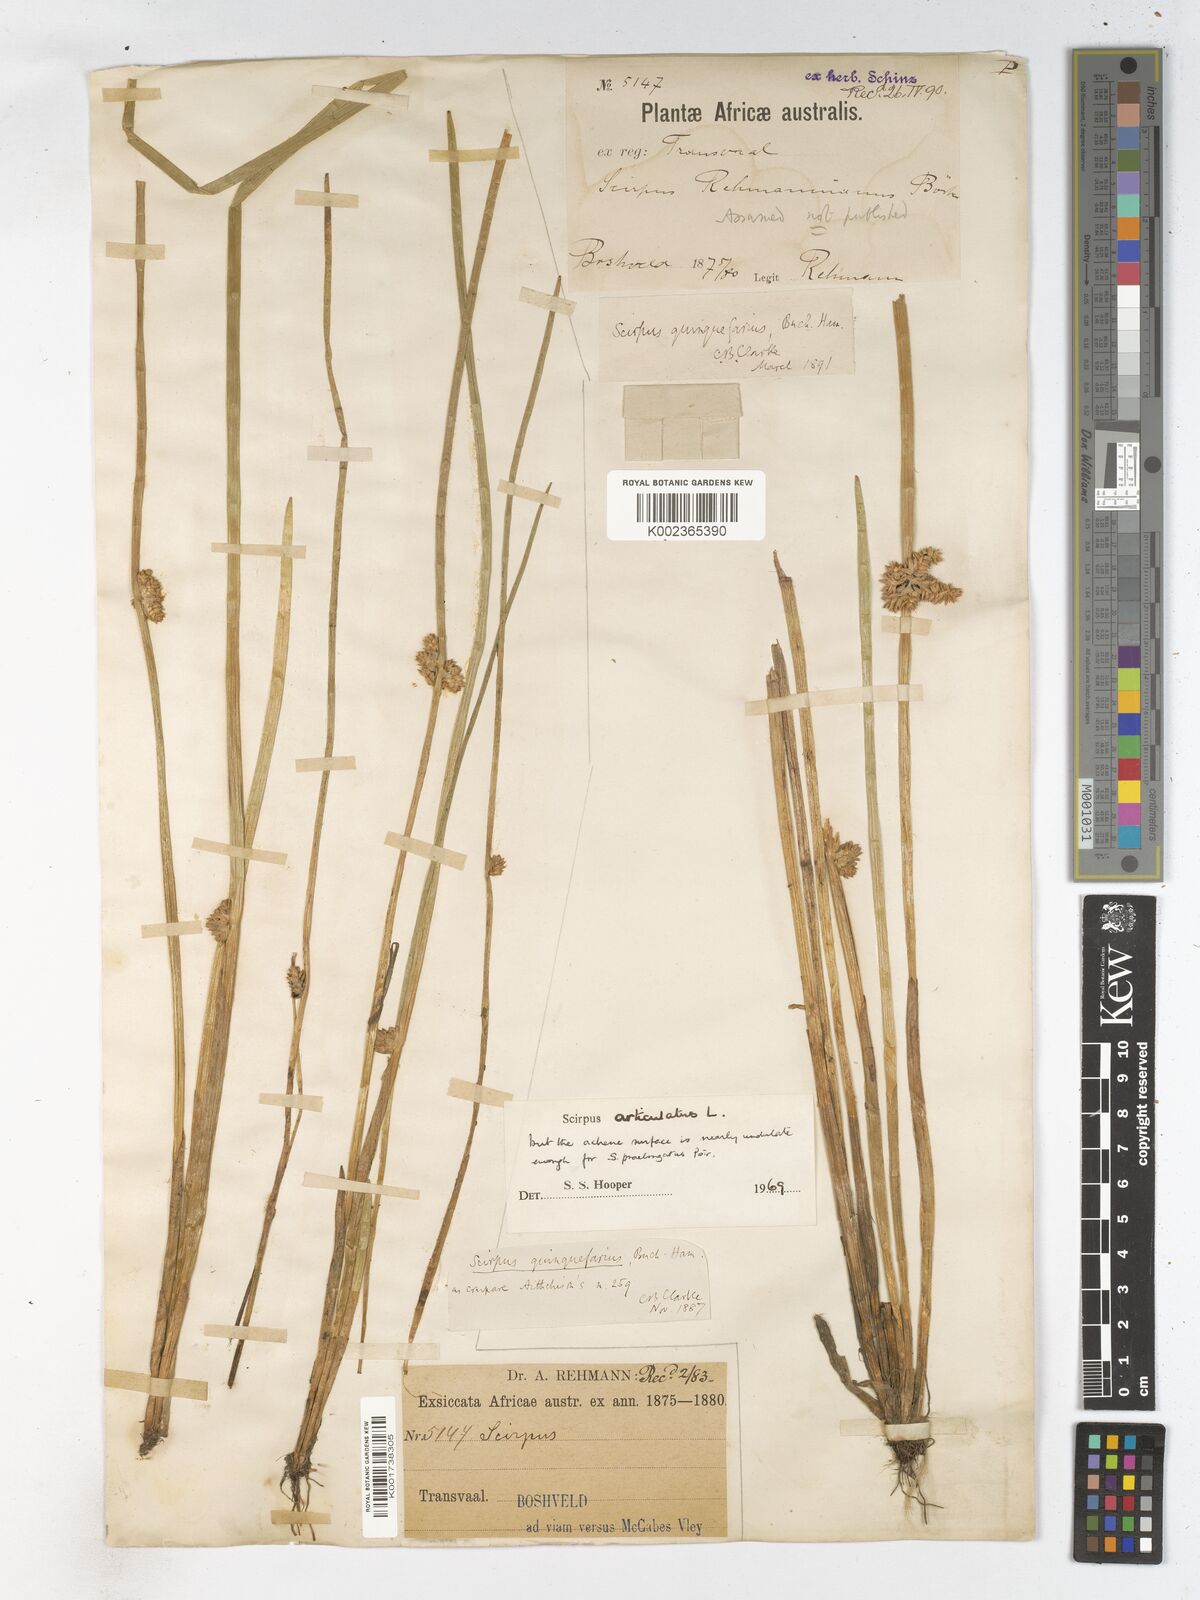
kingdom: Plantae
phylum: Tracheophyta
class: Liliopsida
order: Poales
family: Cyperaceae
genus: Schoenoplectiella
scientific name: Schoenoplectiella articulata
